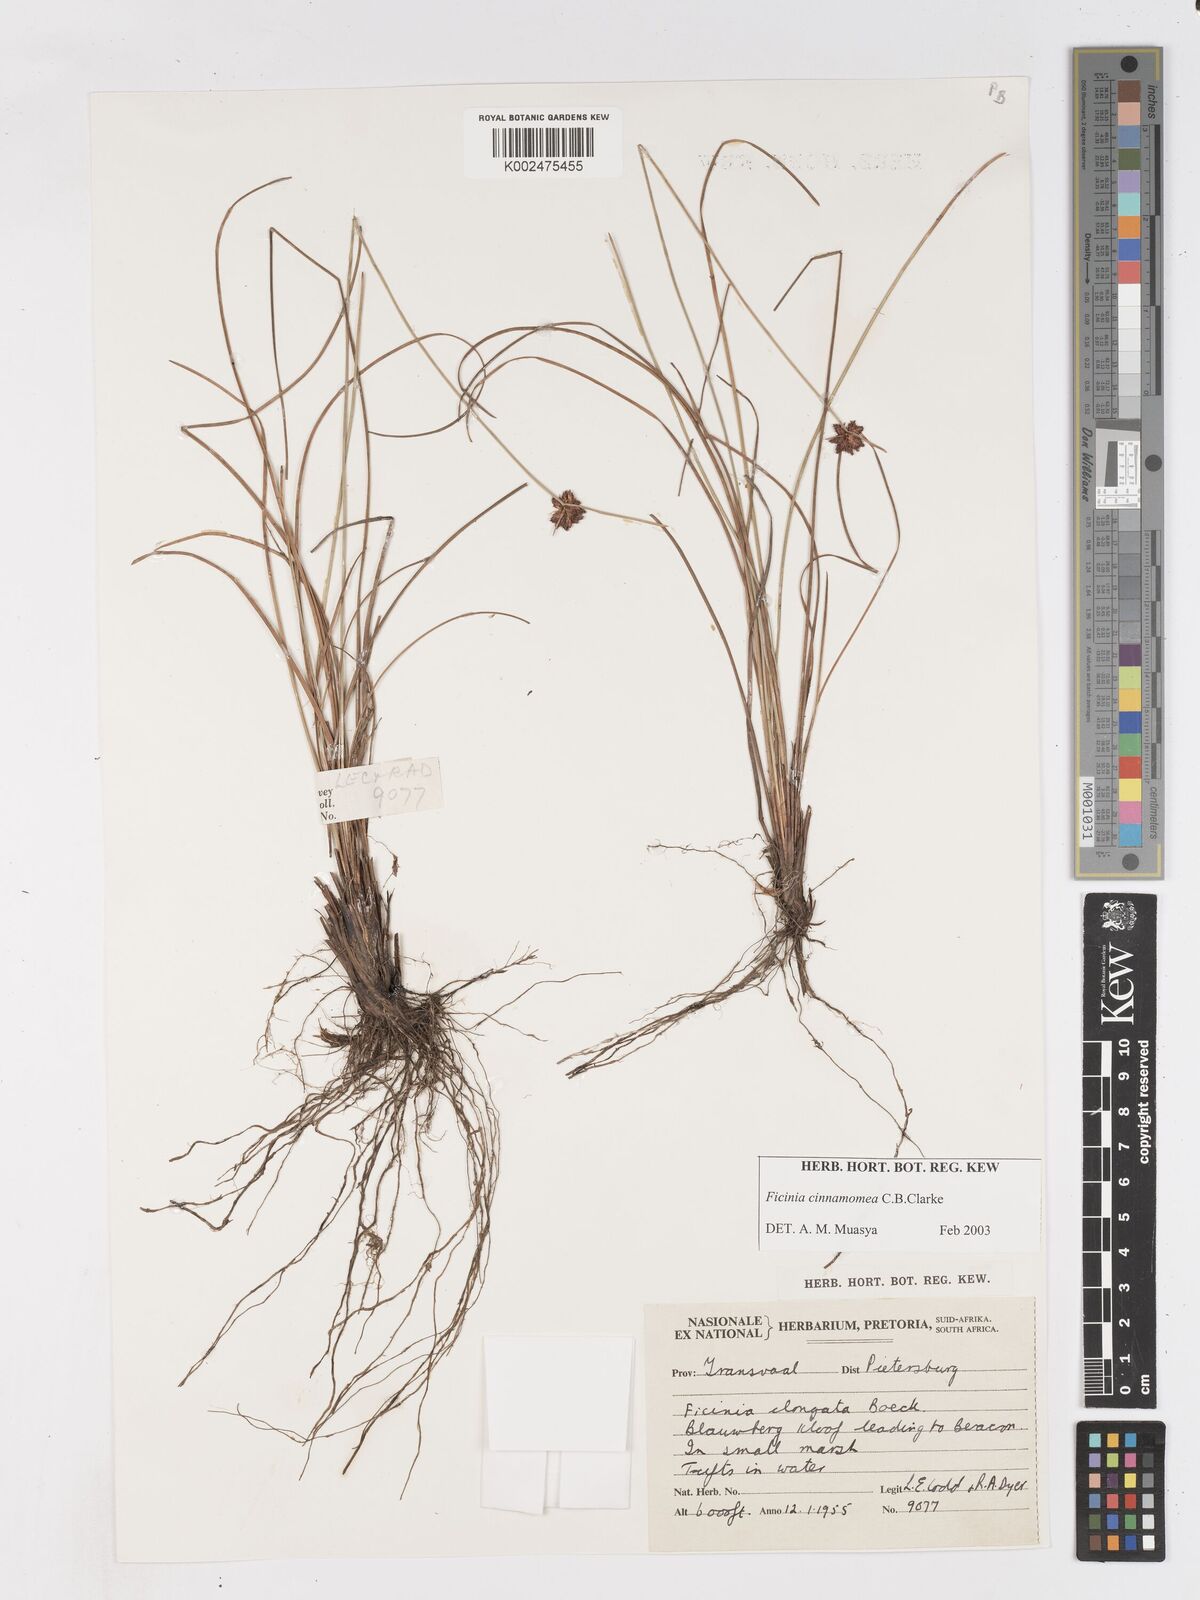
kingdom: Plantae
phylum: Tracheophyta
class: Liliopsida
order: Poales
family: Cyperaceae
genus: Ficinia
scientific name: Ficinia gracilis
